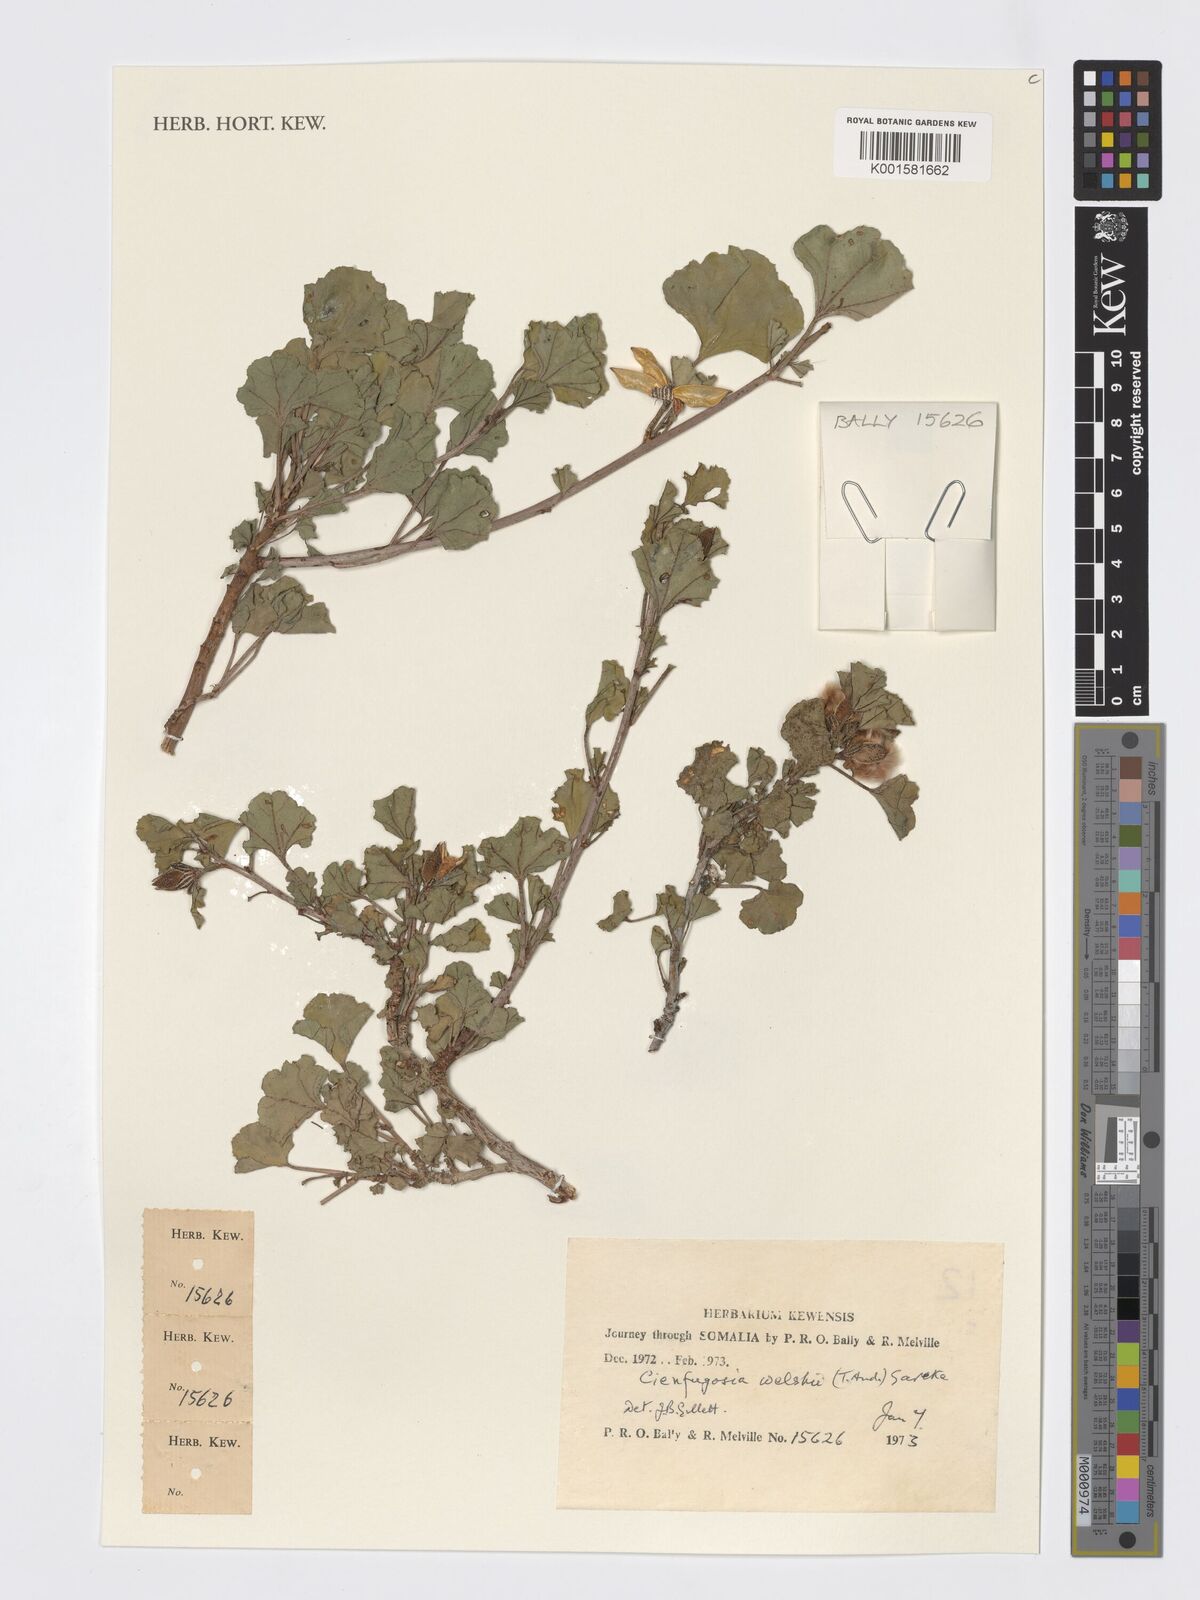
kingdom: Plantae
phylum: Tracheophyta
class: Magnoliopsida
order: Malvales
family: Malvaceae
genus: Cienfuegosia
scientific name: Cienfuegosia welshii
